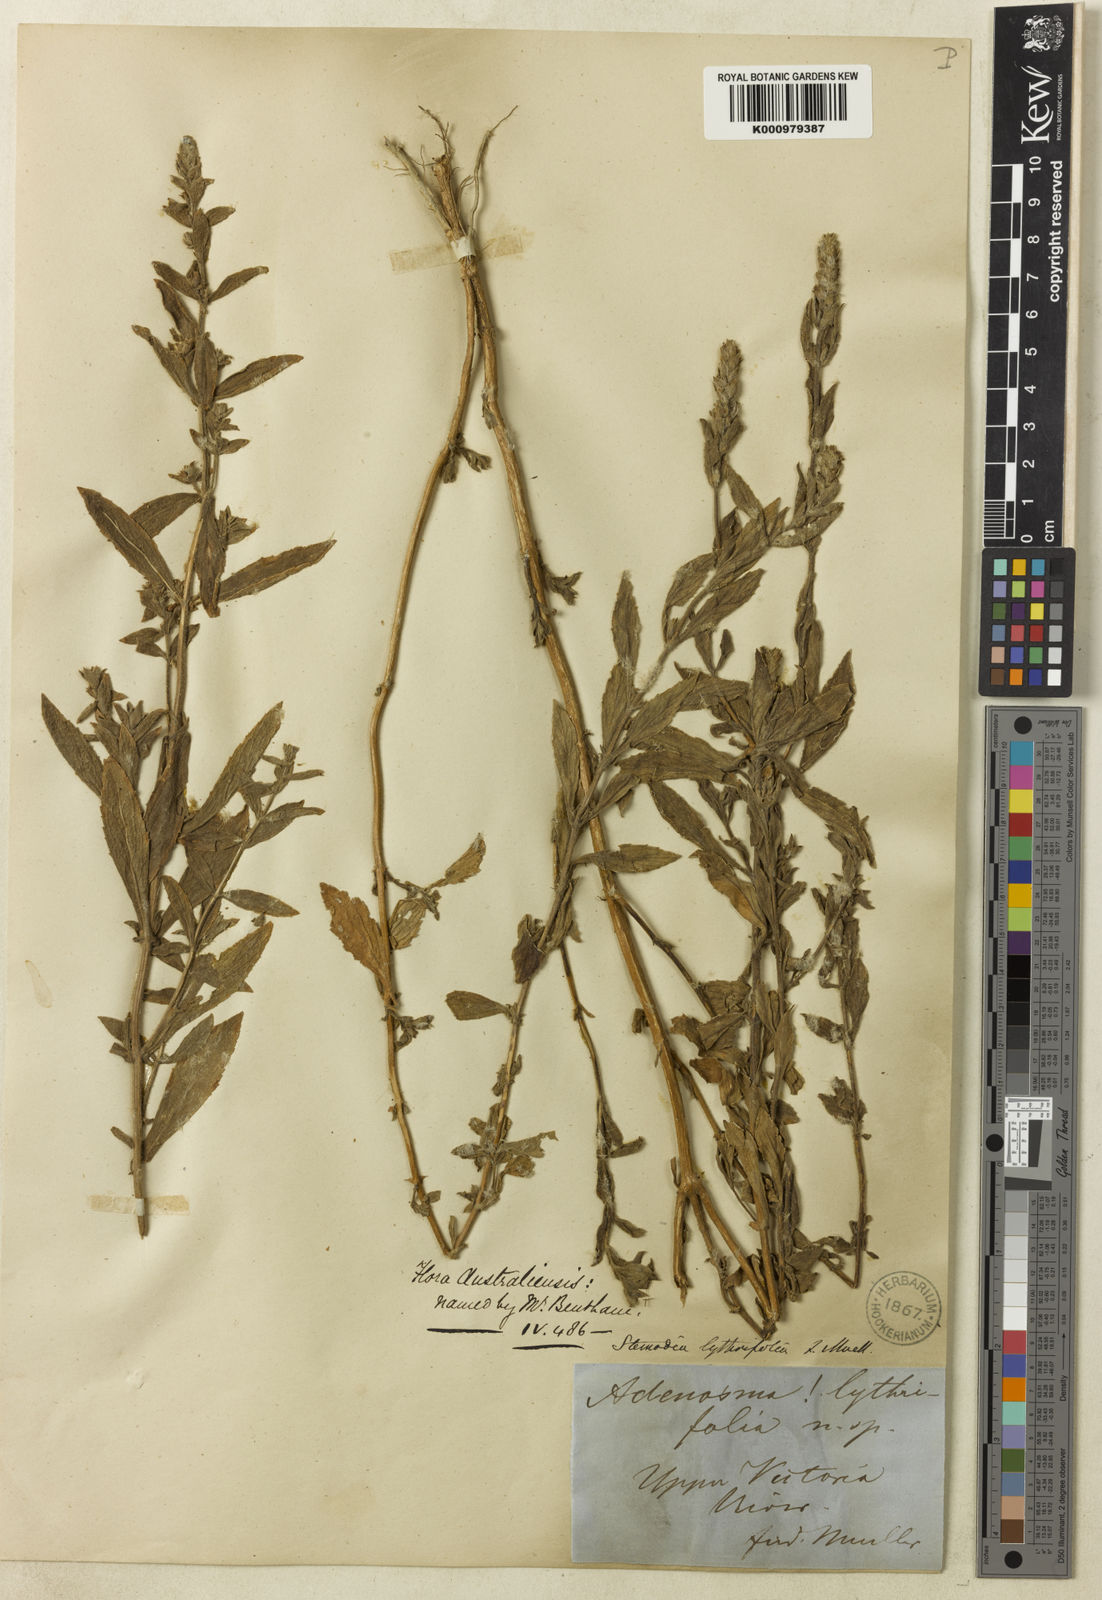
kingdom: Plantae
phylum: Tracheophyta
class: Magnoliopsida
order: Lamiales
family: Plantaginaceae
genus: Stemodia
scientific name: Stemodia lythrifolia
